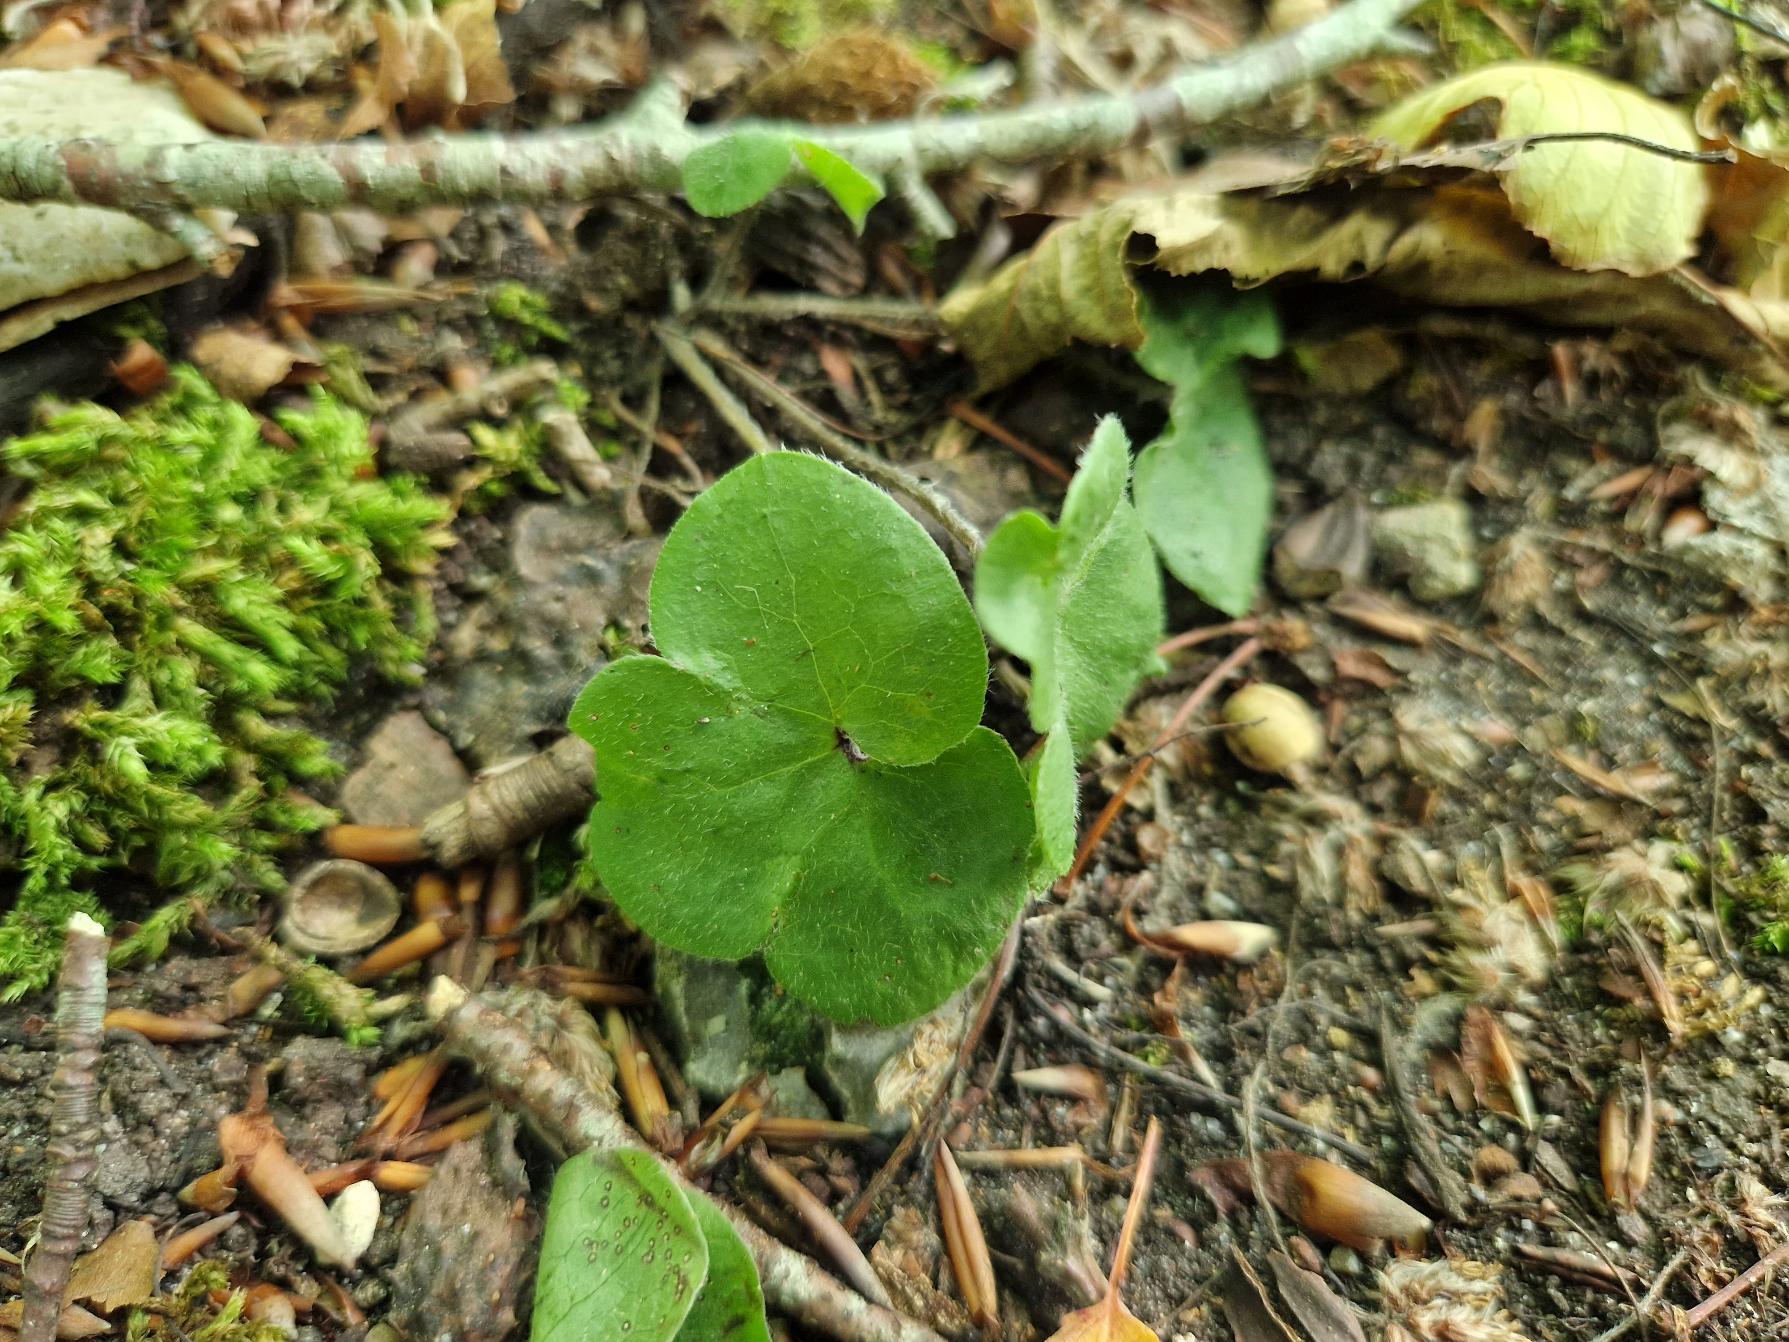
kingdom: Plantae
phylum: Tracheophyta
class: Magnoliopsida
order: Ranunculales
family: Ranunculaceae
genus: Hepatica
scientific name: Hepatica nobilis
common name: Blå anemone
